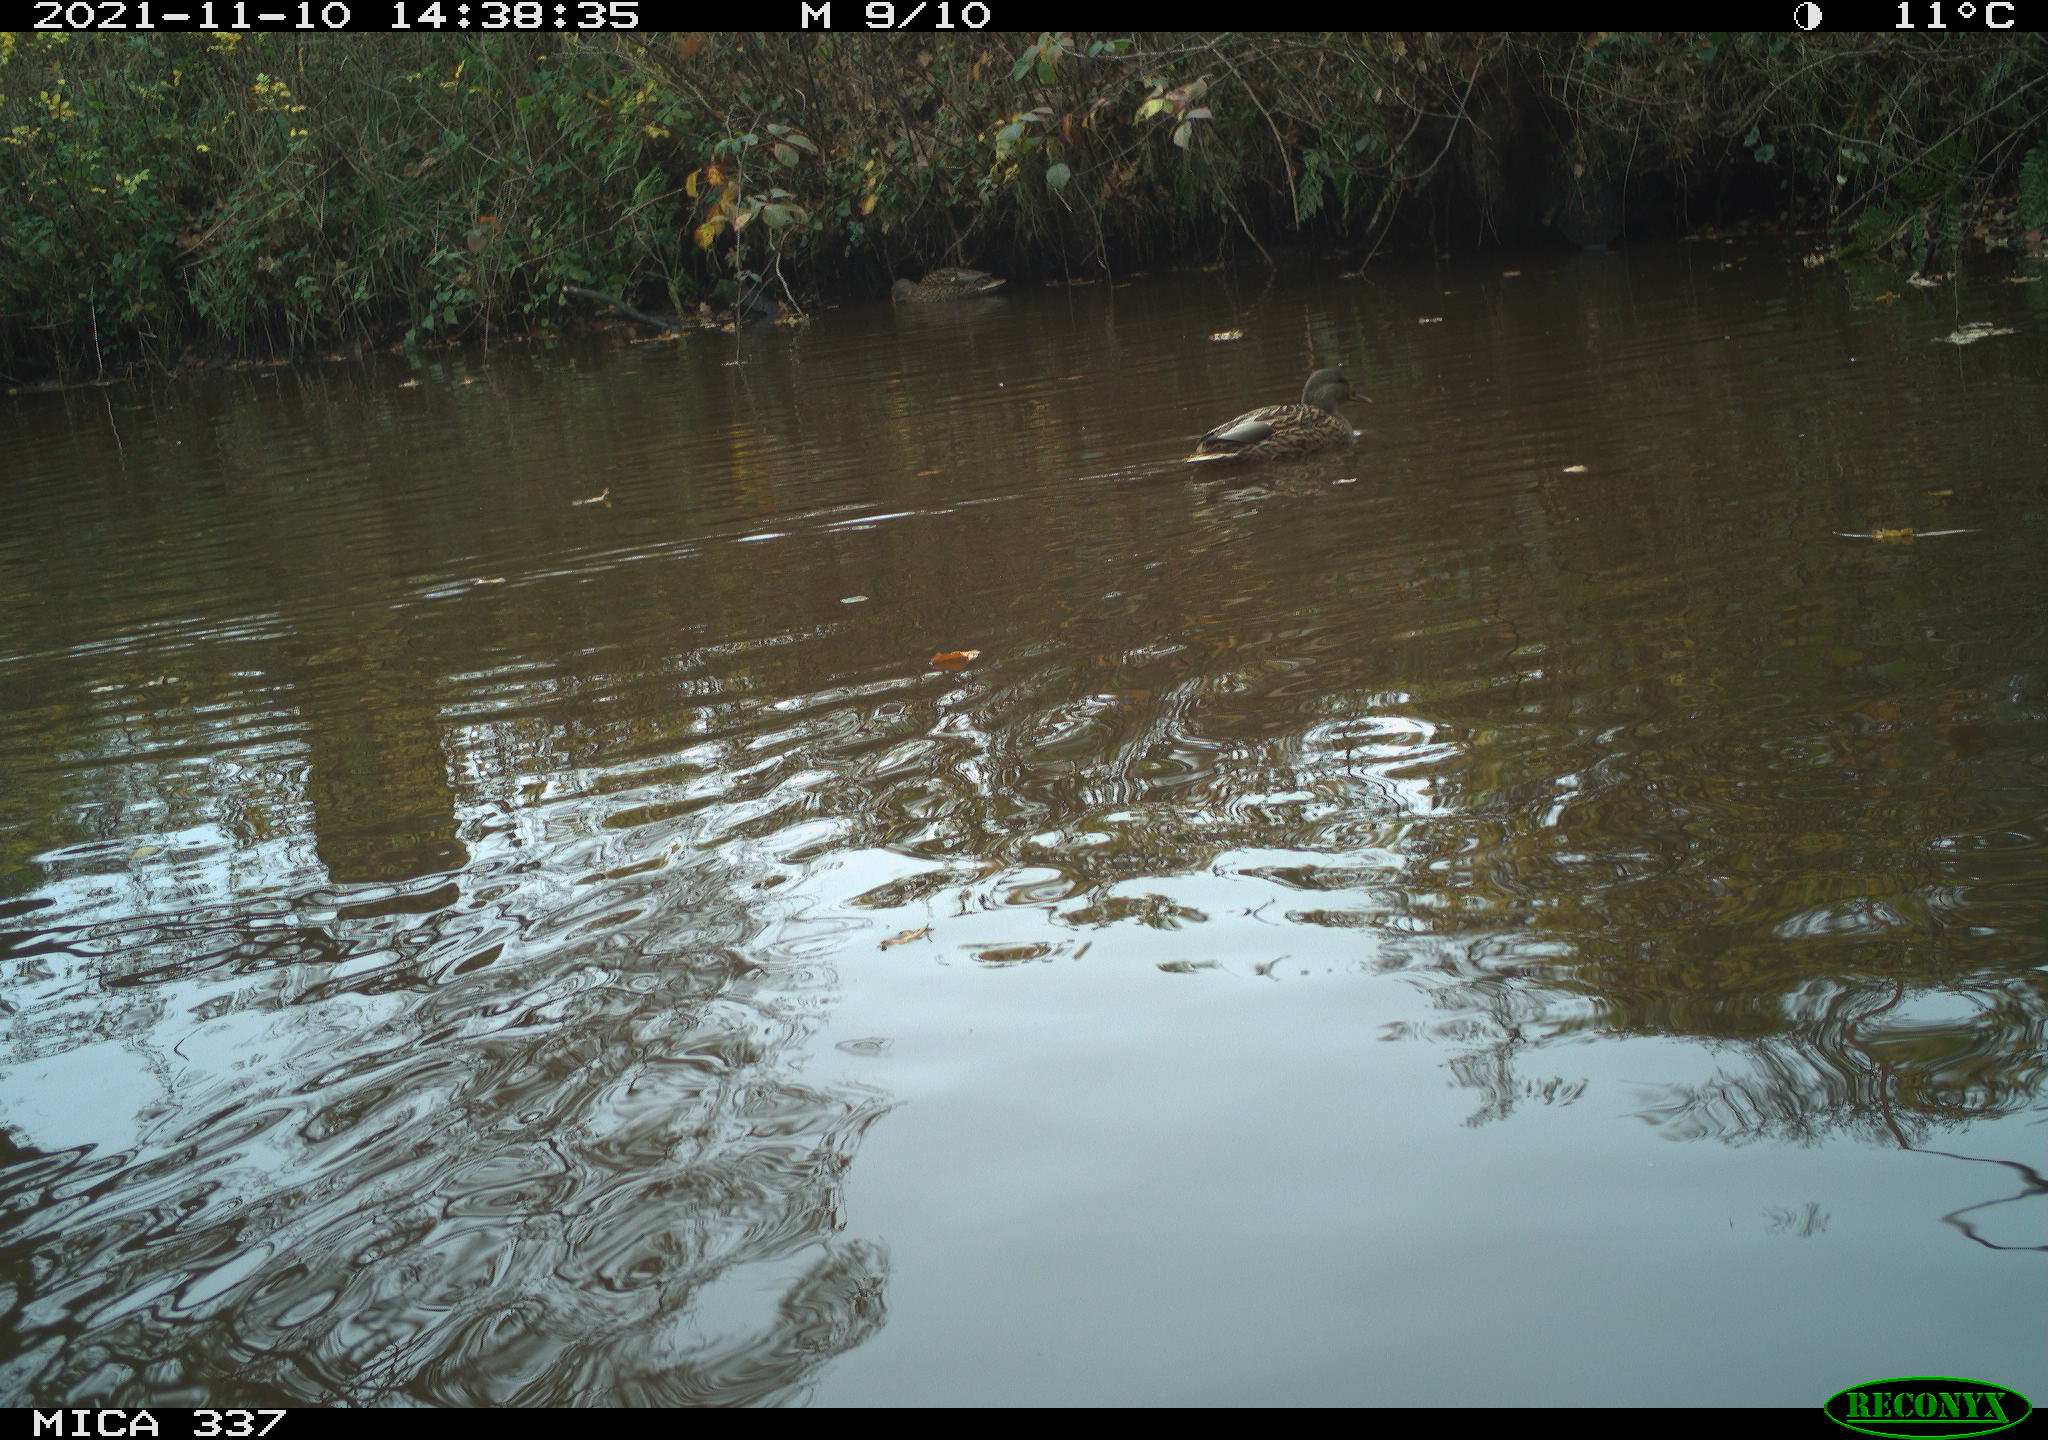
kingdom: Animalia
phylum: Chordata
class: Aves
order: Anseriformes
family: Anatidae
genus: Anas
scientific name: Anas platyrhynchos
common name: Mallard
